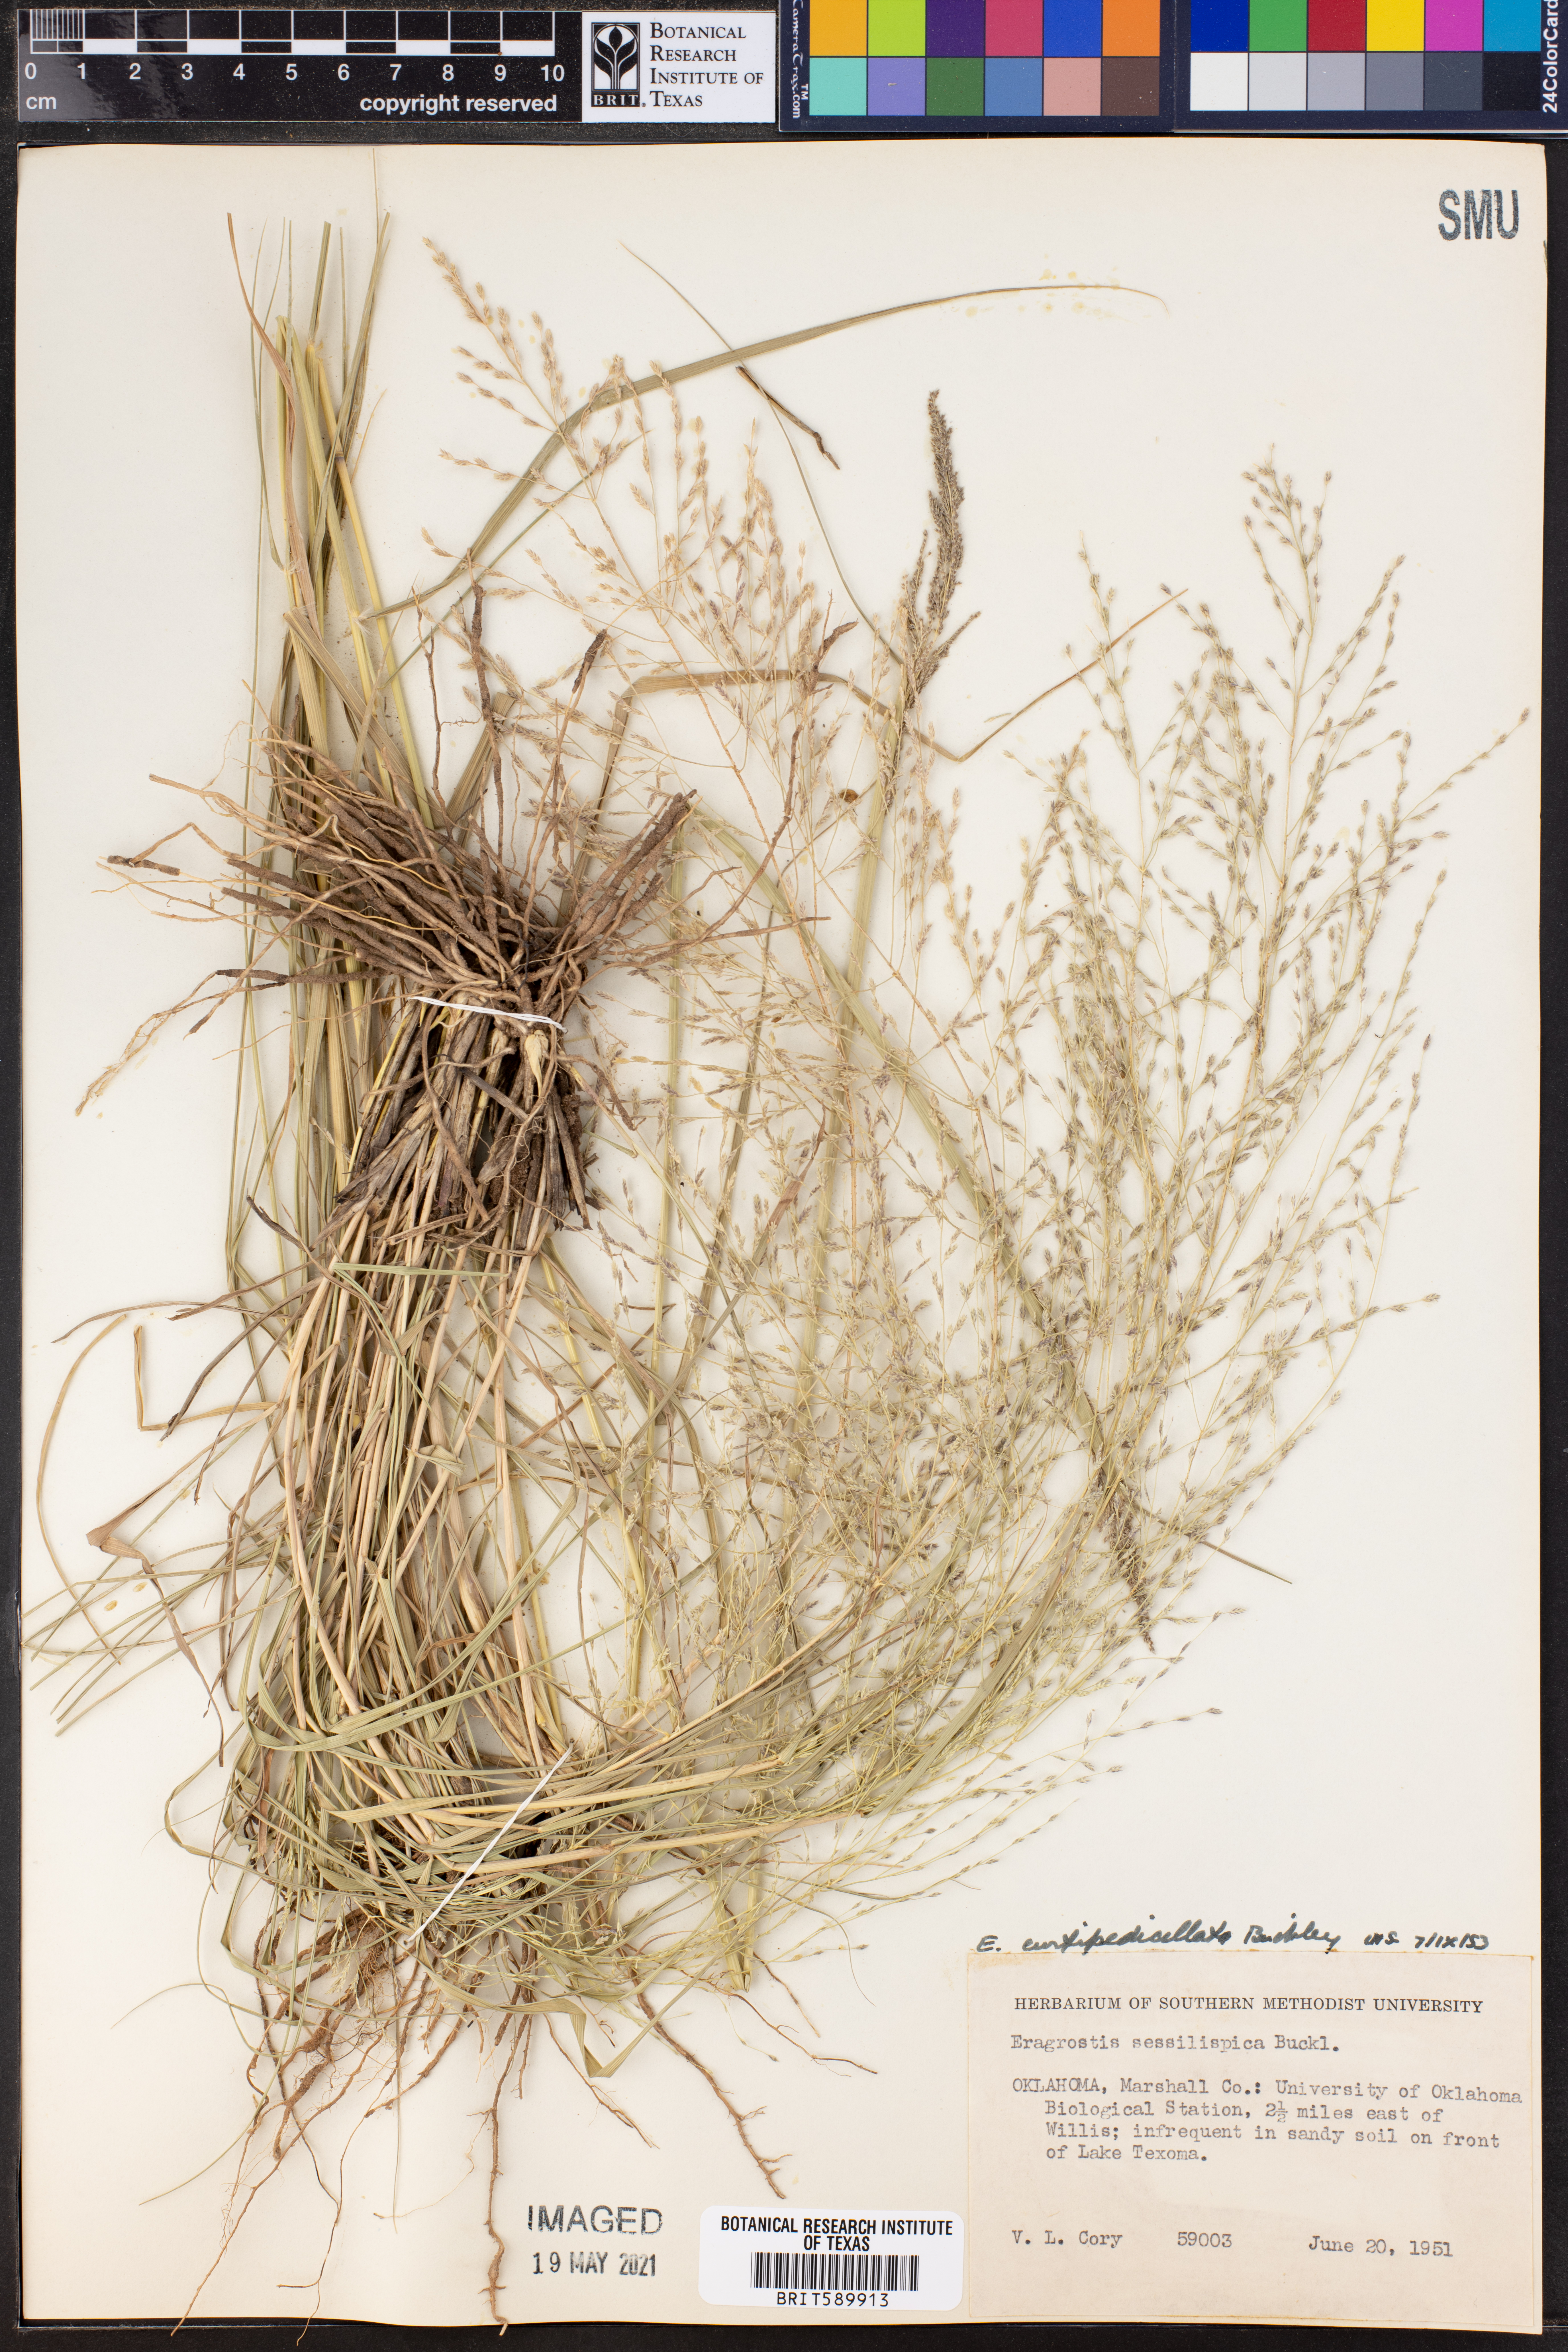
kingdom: Plantae
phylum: Tracheophyta
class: Liliopsida
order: Poales
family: Poaceae
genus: Eragrostis
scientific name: Eragrostis curtipedicellata
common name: Gummy love grass
